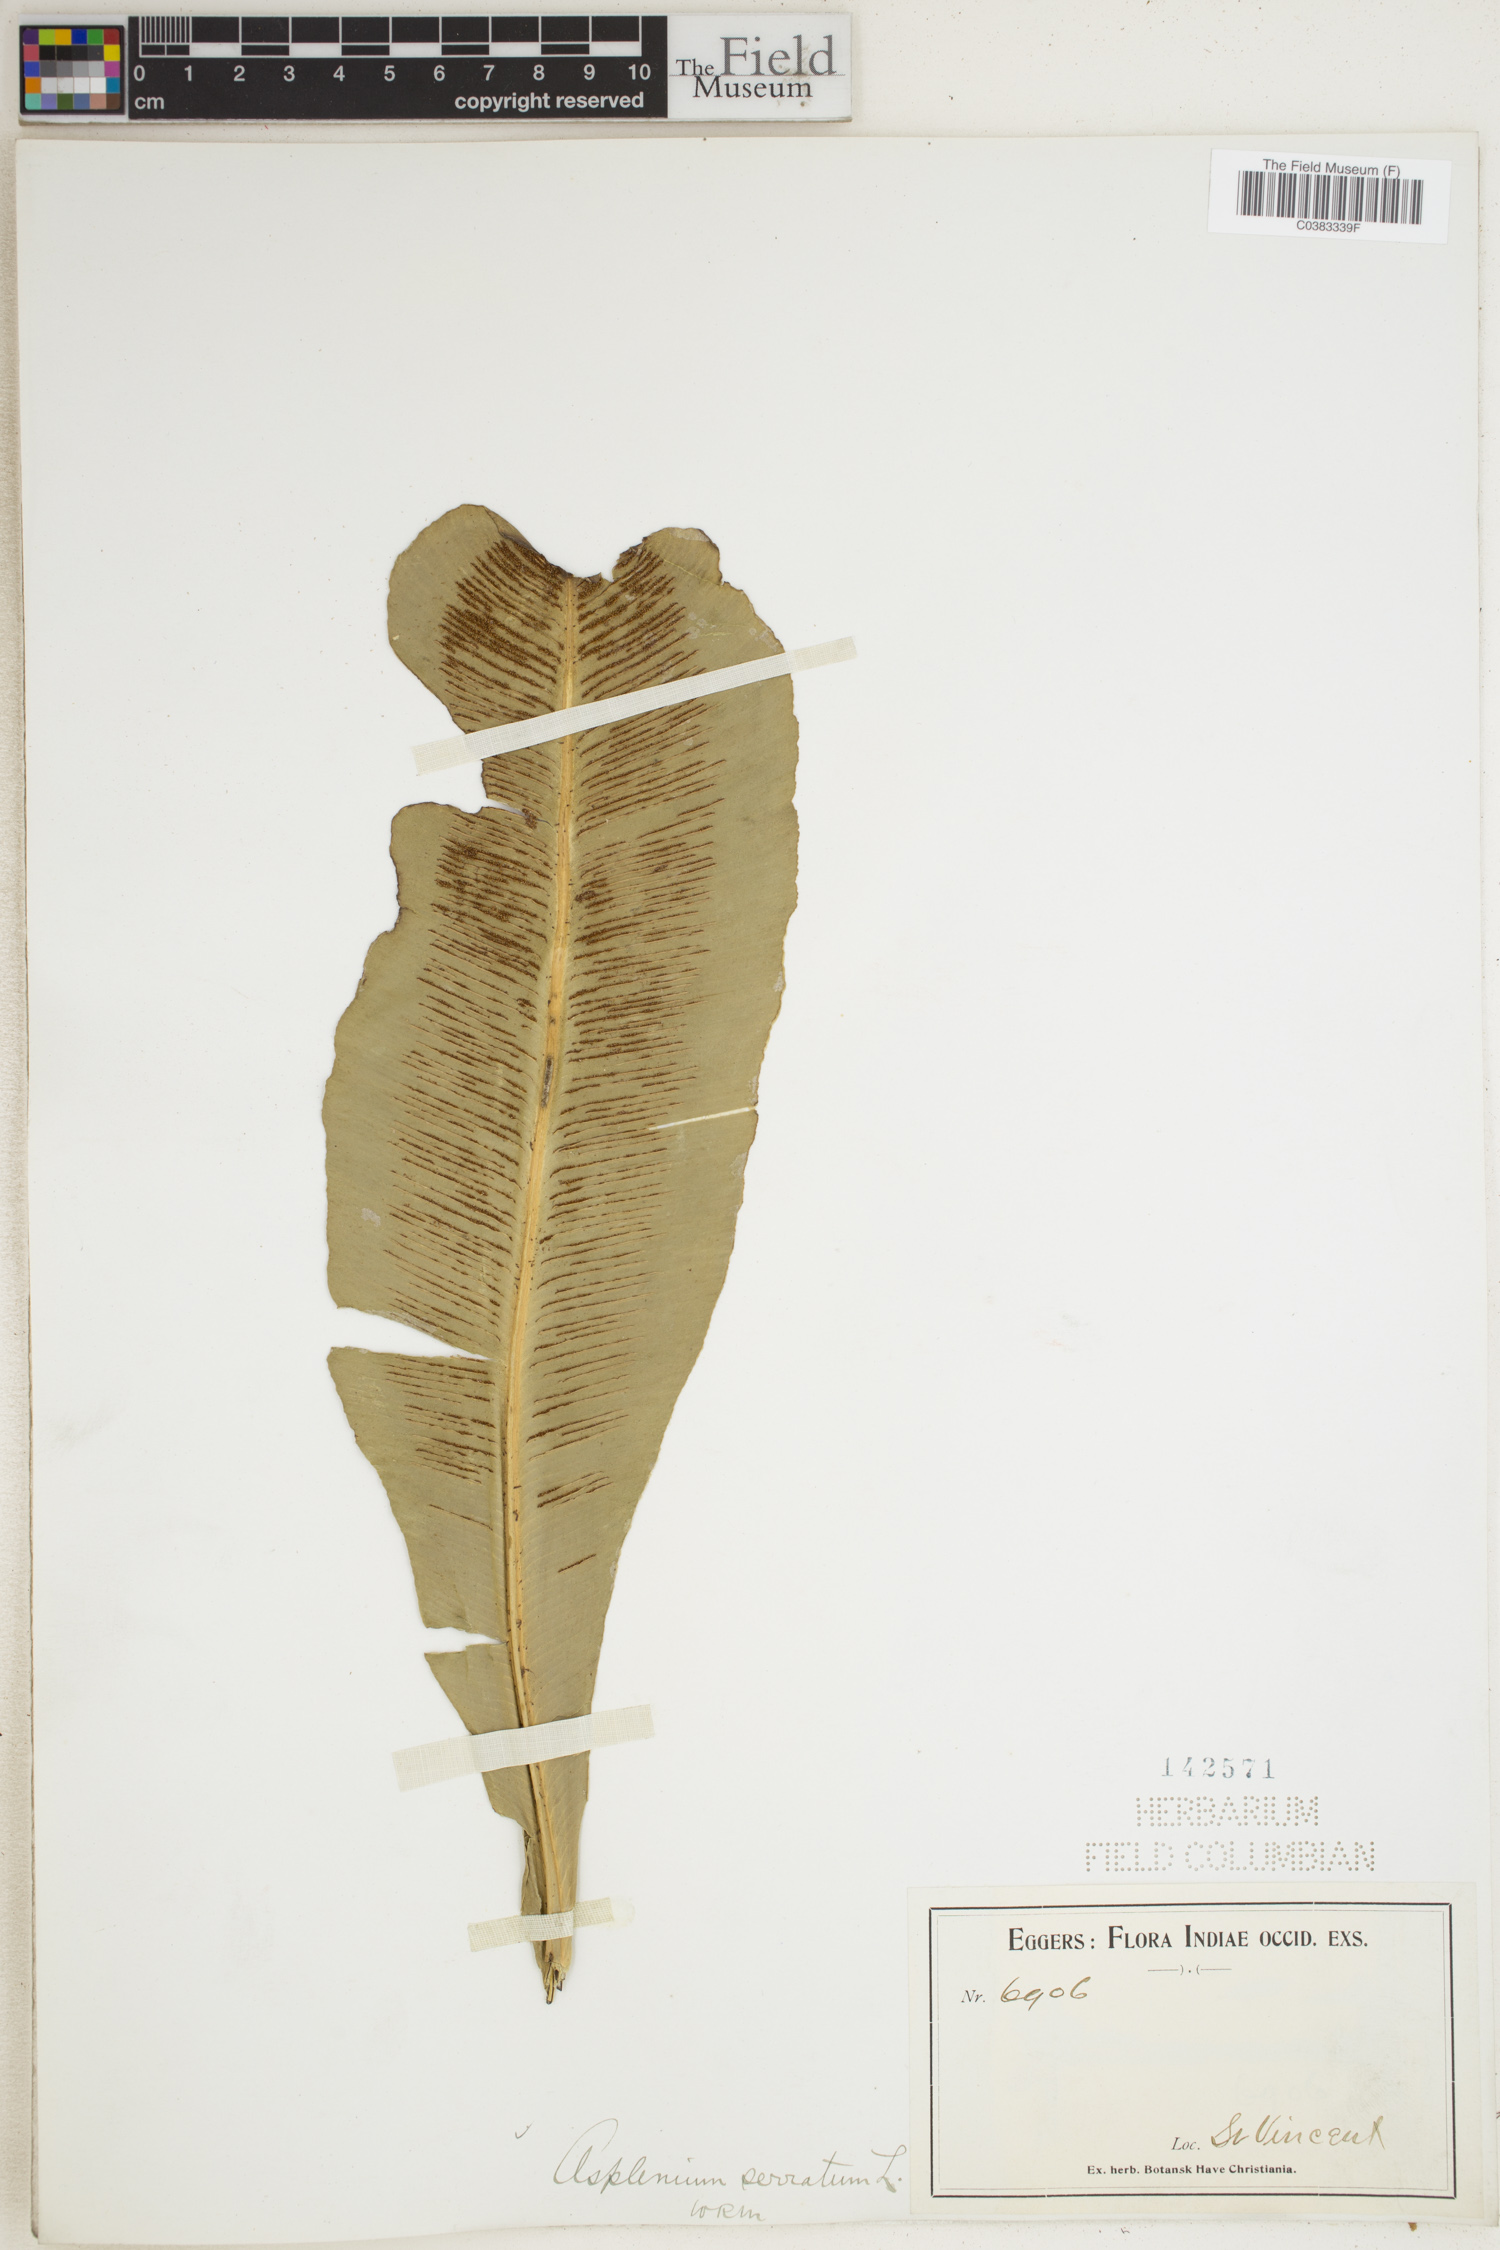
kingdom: Plantae
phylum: Tracheophyta
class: Polypodiopsida
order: Polypodiales
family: Aspleniaceae
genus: Asplenium
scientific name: Asplenium serratum
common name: Wild birdnest fern
